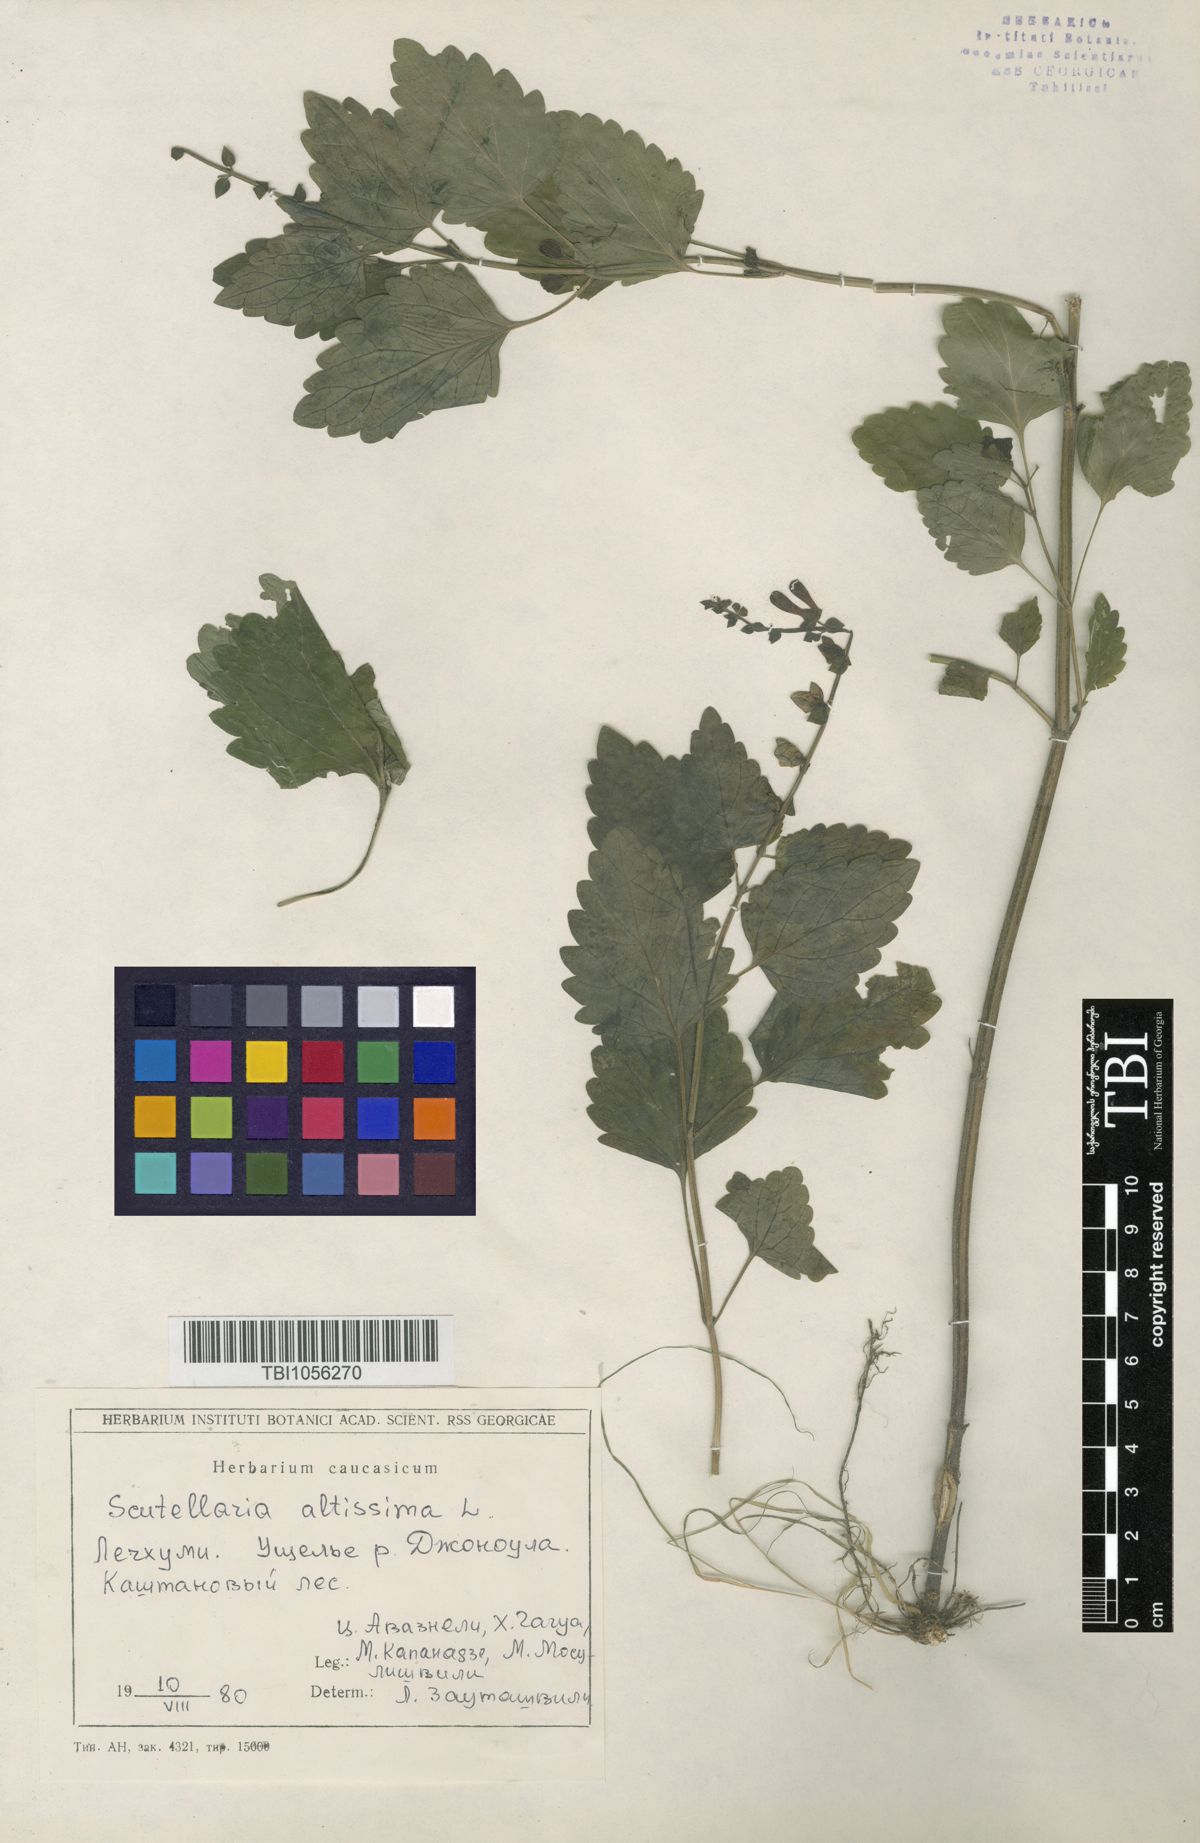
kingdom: Plantae
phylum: Tracheophyta
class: Magnoliopsida
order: Lamiales
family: Lamiaceae
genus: Scutellaria
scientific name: Scutellaria altissima
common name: Somerset skullcap
